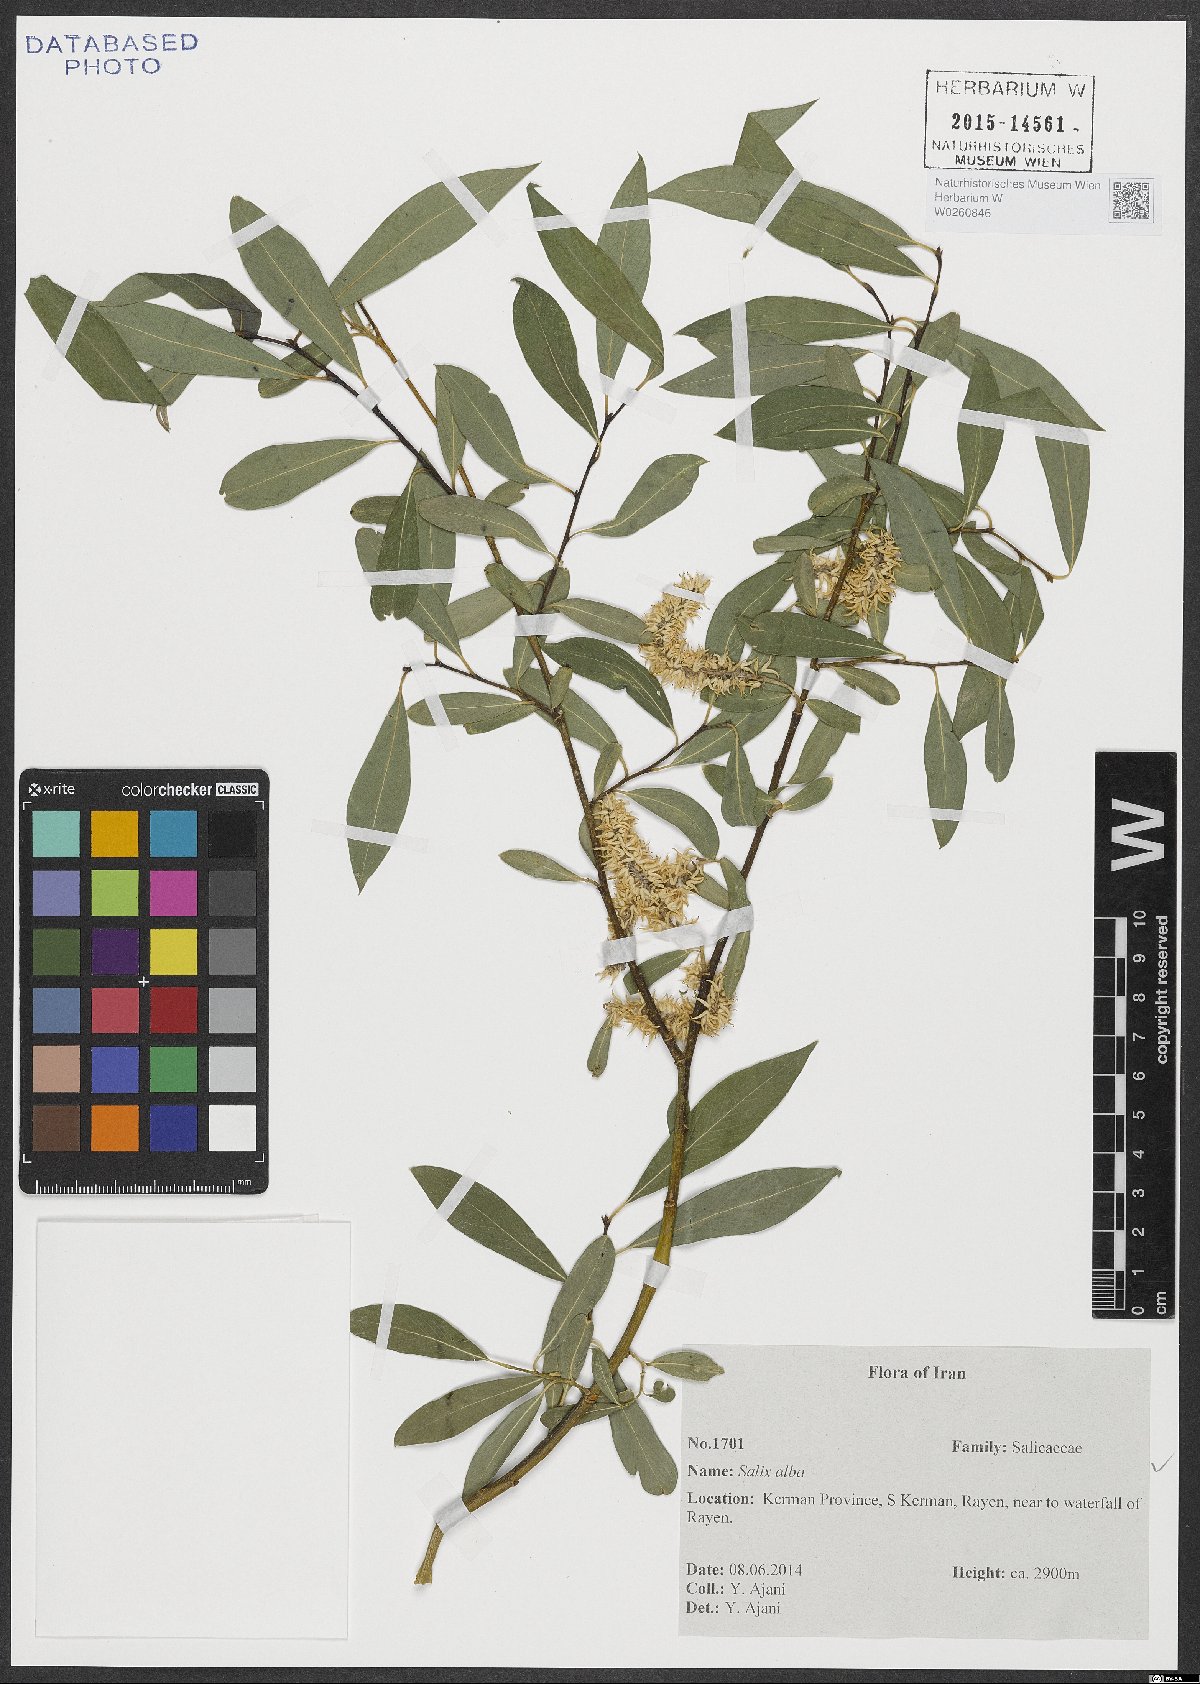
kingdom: Plantae
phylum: Tracheophyta
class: Magnoliopsida
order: Malpighiales
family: Salicaceae
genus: Salix
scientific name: Salix alba
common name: White willow
